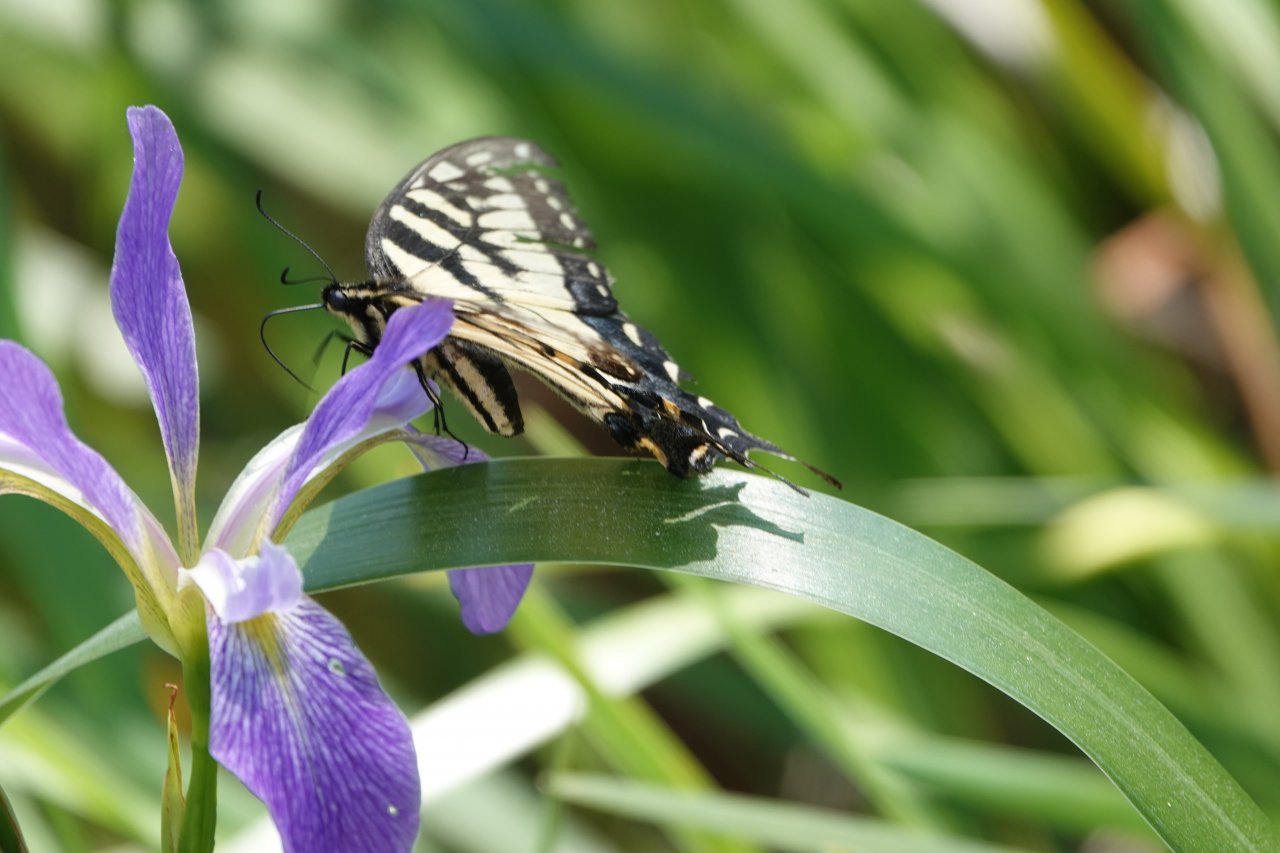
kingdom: Animalia
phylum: Arthropoda
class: Insecta
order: Lepidoptera
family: Papilionidae
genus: Pterourus
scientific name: Pterourus glaucus
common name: Eastern Tiger Swallowtail
